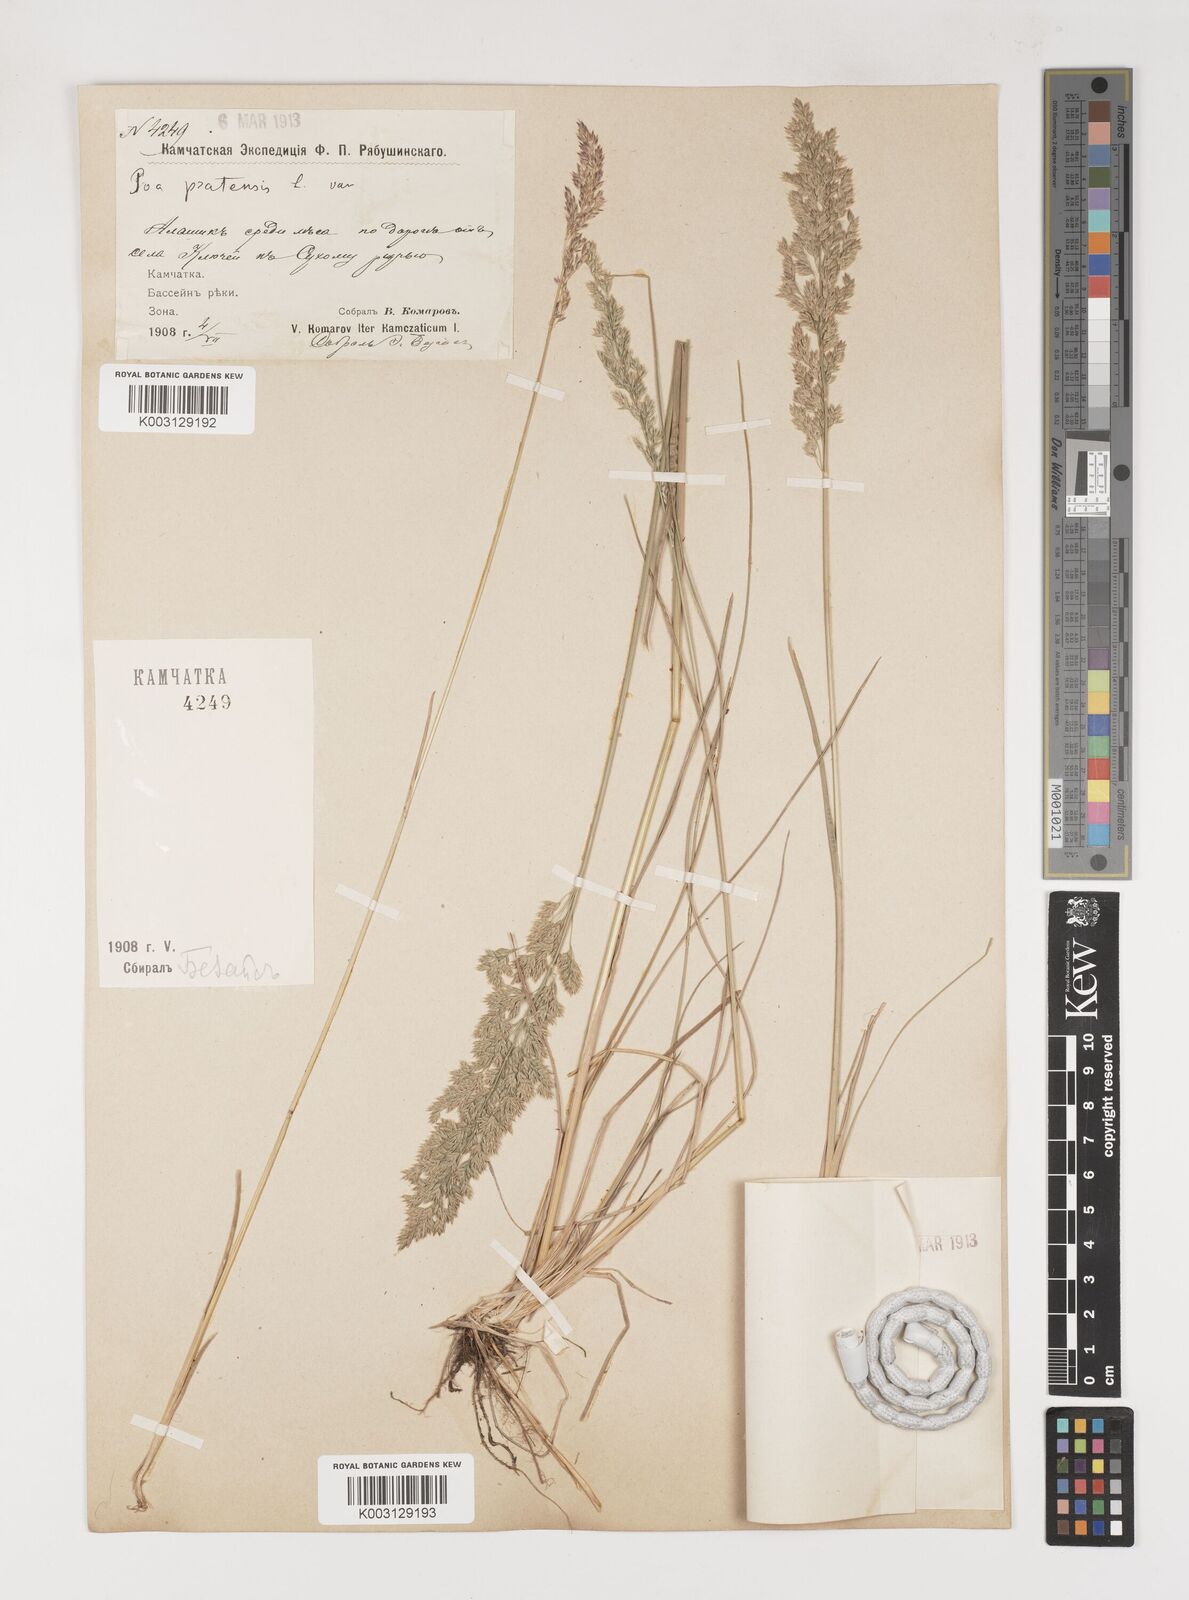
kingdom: Plantae
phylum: Tracheophyta
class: Liliopsida
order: Poales
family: Poaceae
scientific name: Poaceae
